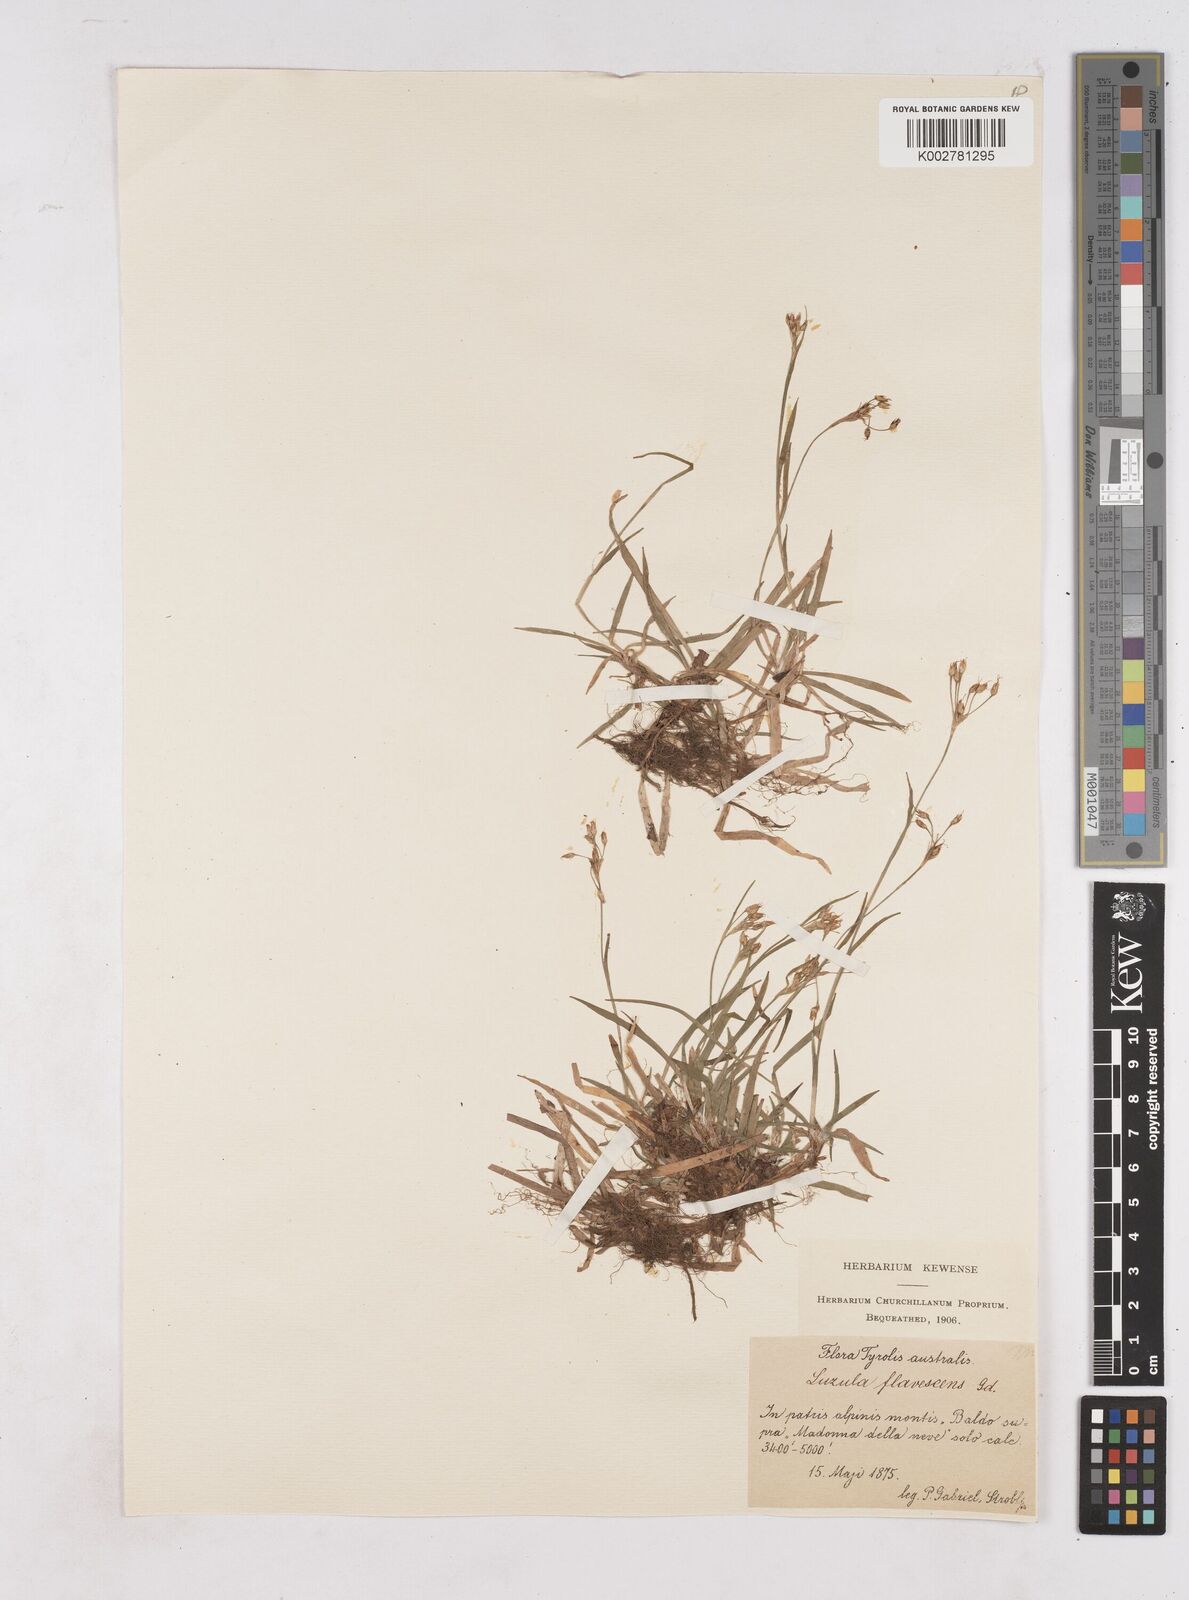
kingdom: Plantae
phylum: Tracheophyta
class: Liliopsida
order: Poales
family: Juncaceae
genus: Luzula
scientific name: Luzula luzulina
